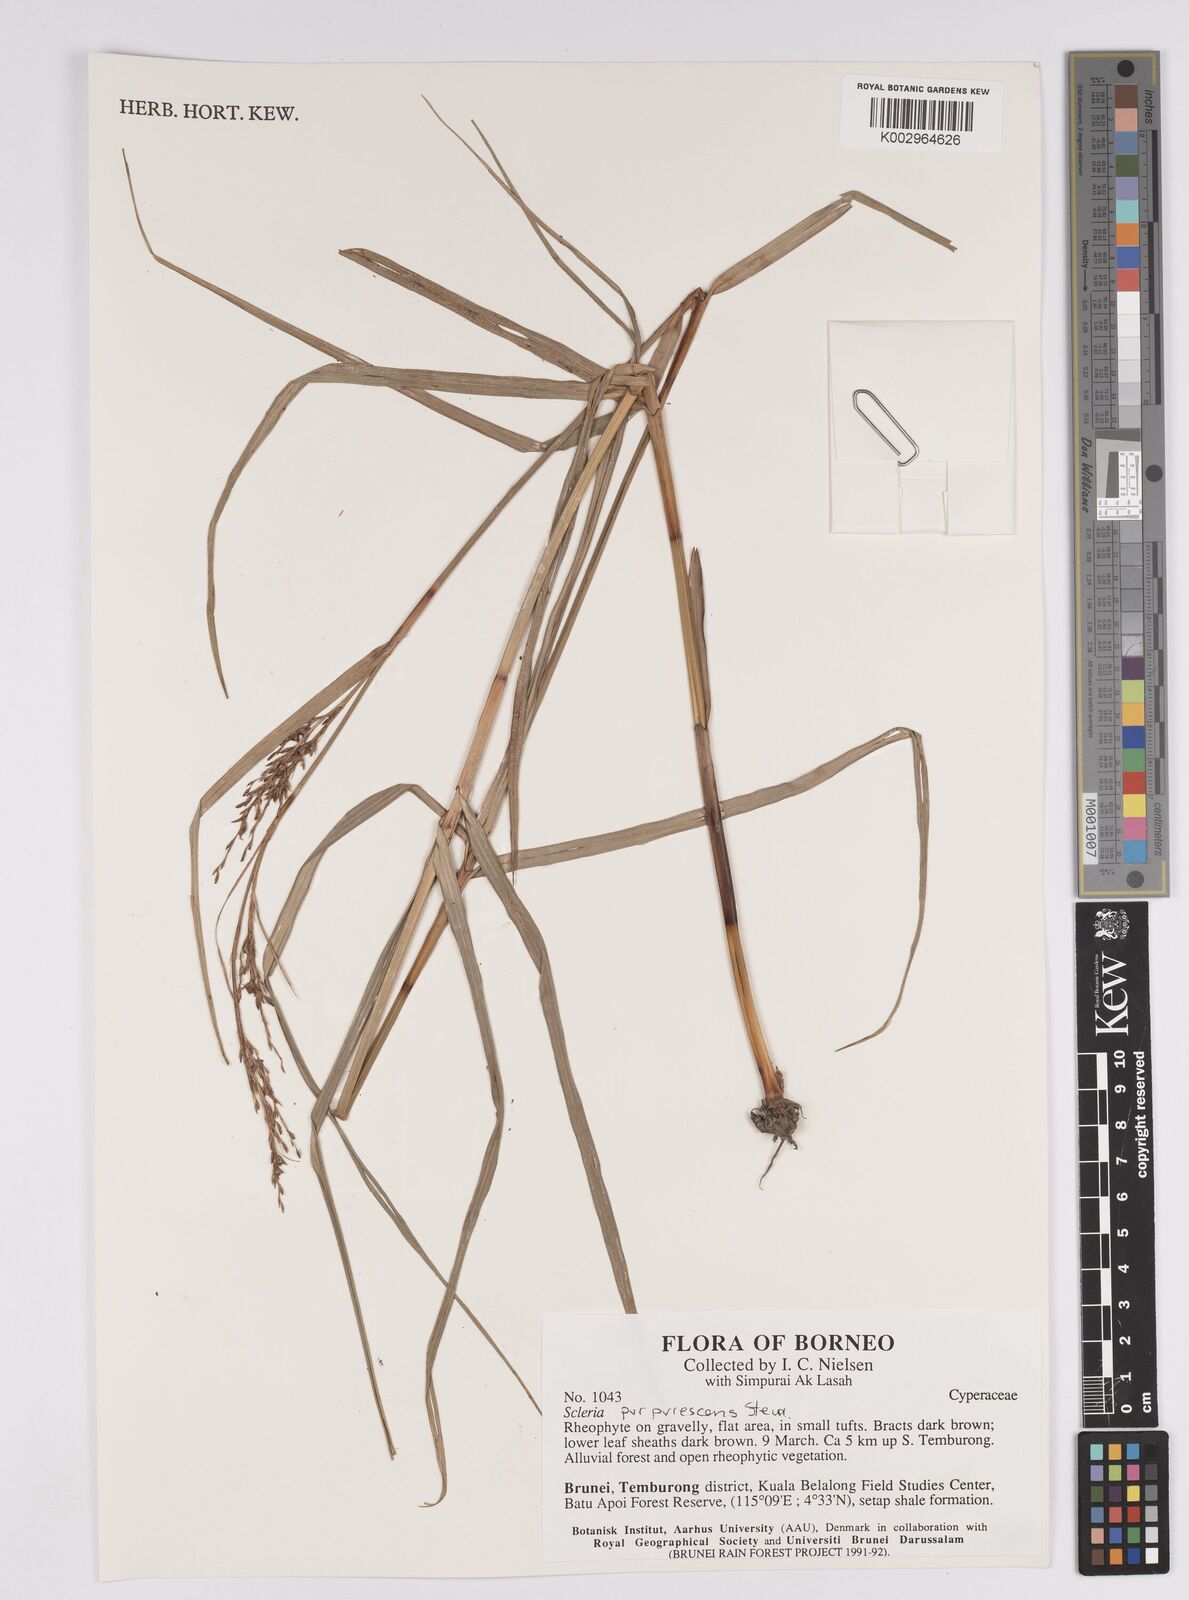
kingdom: Plantae
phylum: Tracheophyta
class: Liliopsida
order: Poales
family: Cyperaceae
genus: Scleria
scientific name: Scleria purpurascens
